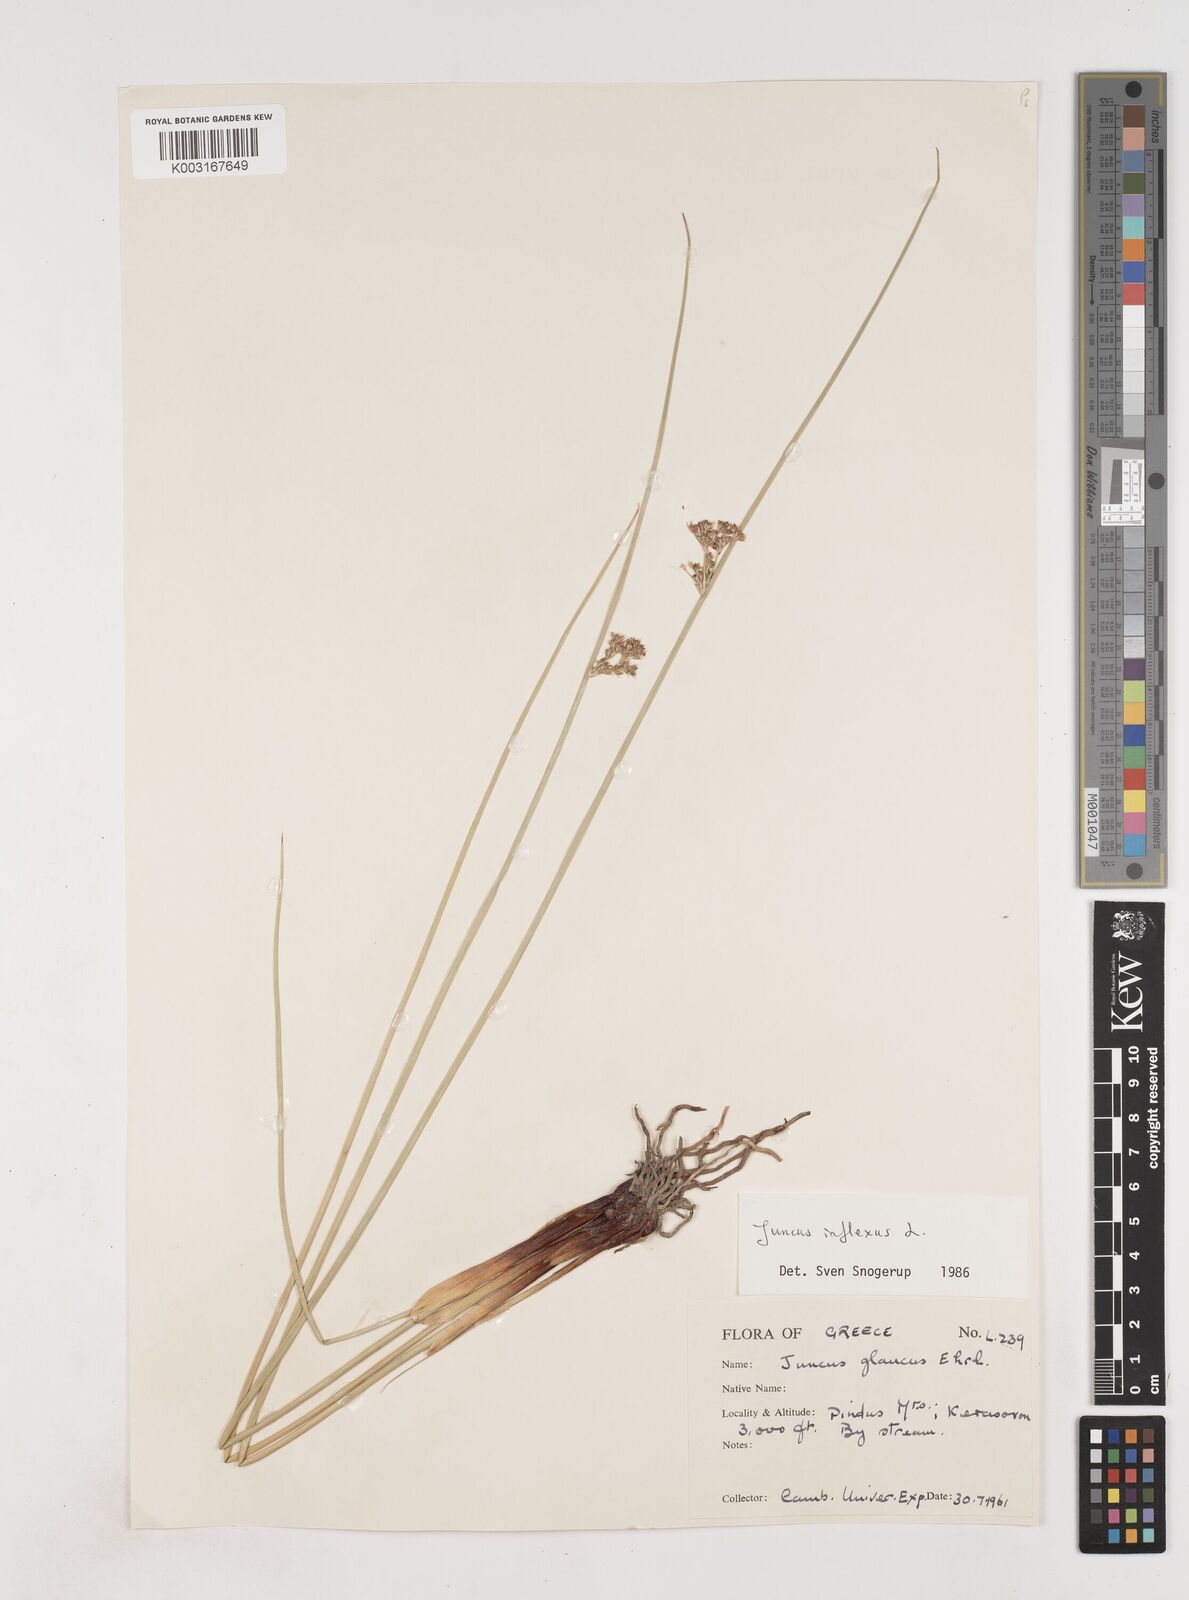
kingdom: Plantae
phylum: Tracheophyta
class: Liliopsida
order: Poales
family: Juncaceae
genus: Juncus
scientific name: Juncus inflexus
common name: Hard rush
